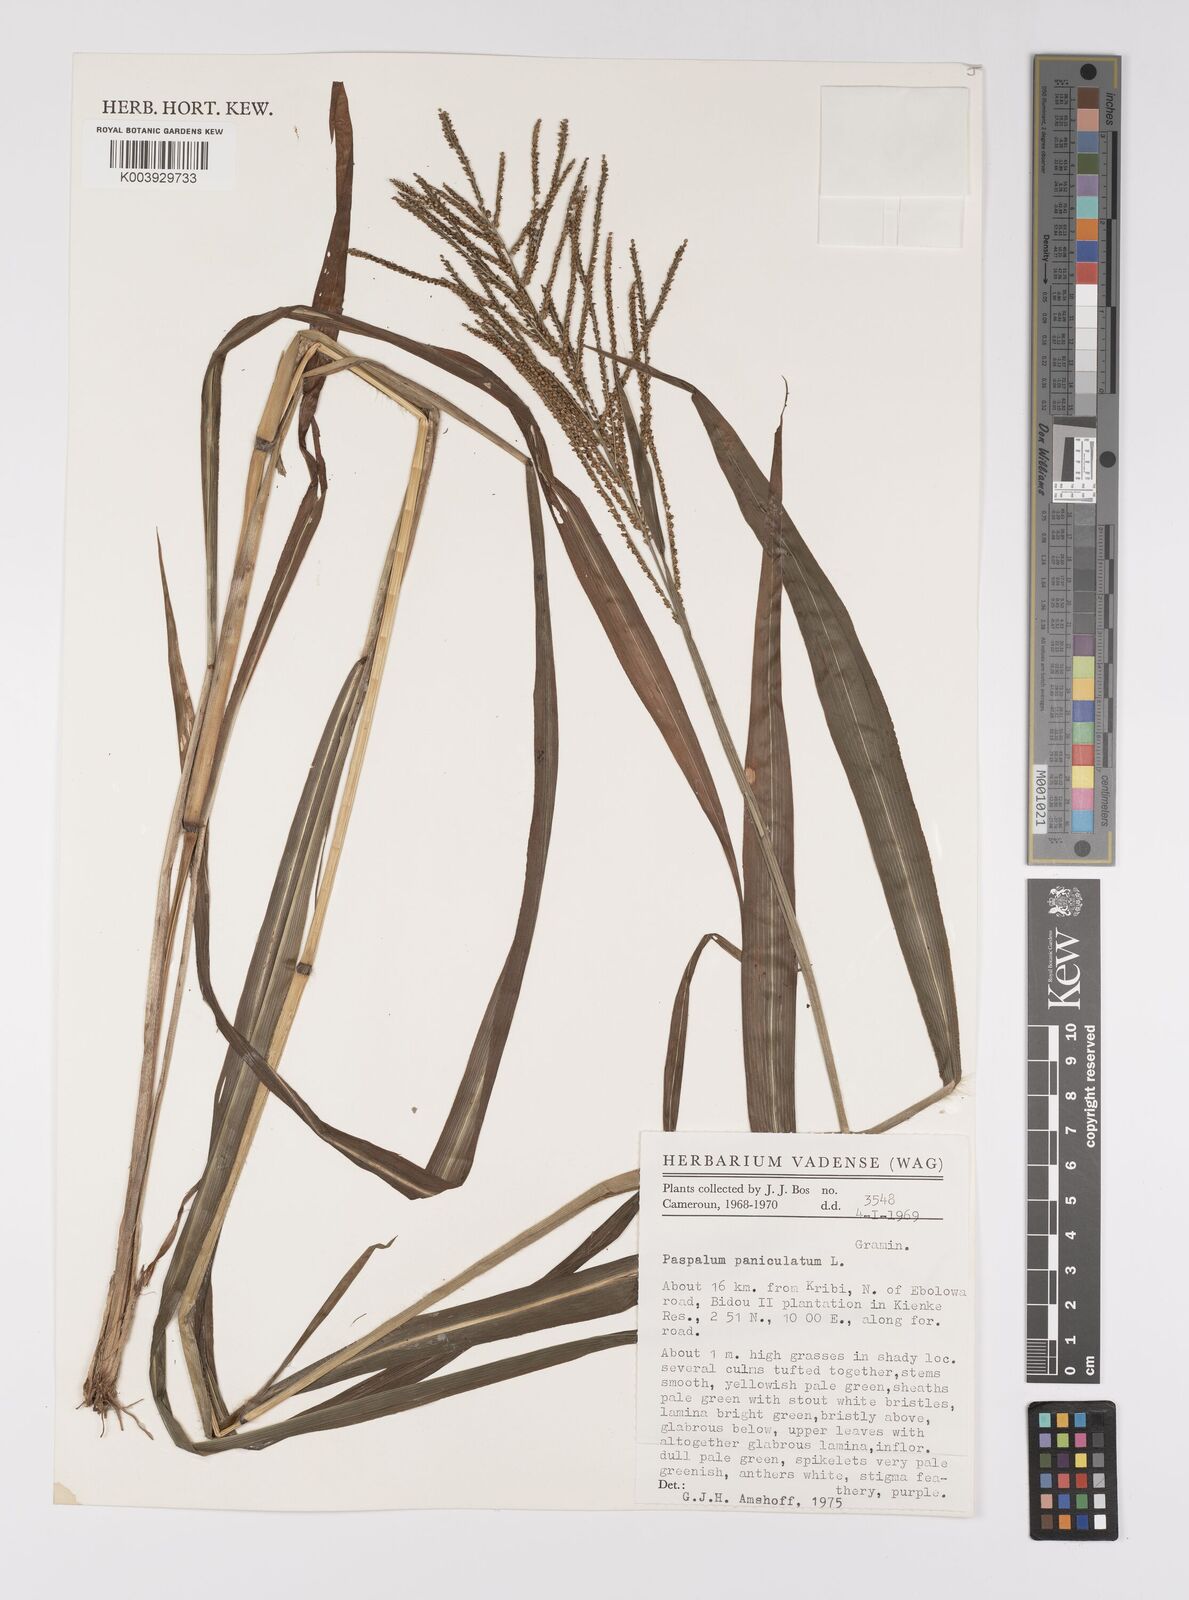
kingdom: Plantae
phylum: Tracheophyta
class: Liliopsida
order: Poales
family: Poaceae
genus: Paspalum
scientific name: Paspalum paniculatum
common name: Arrocillo
